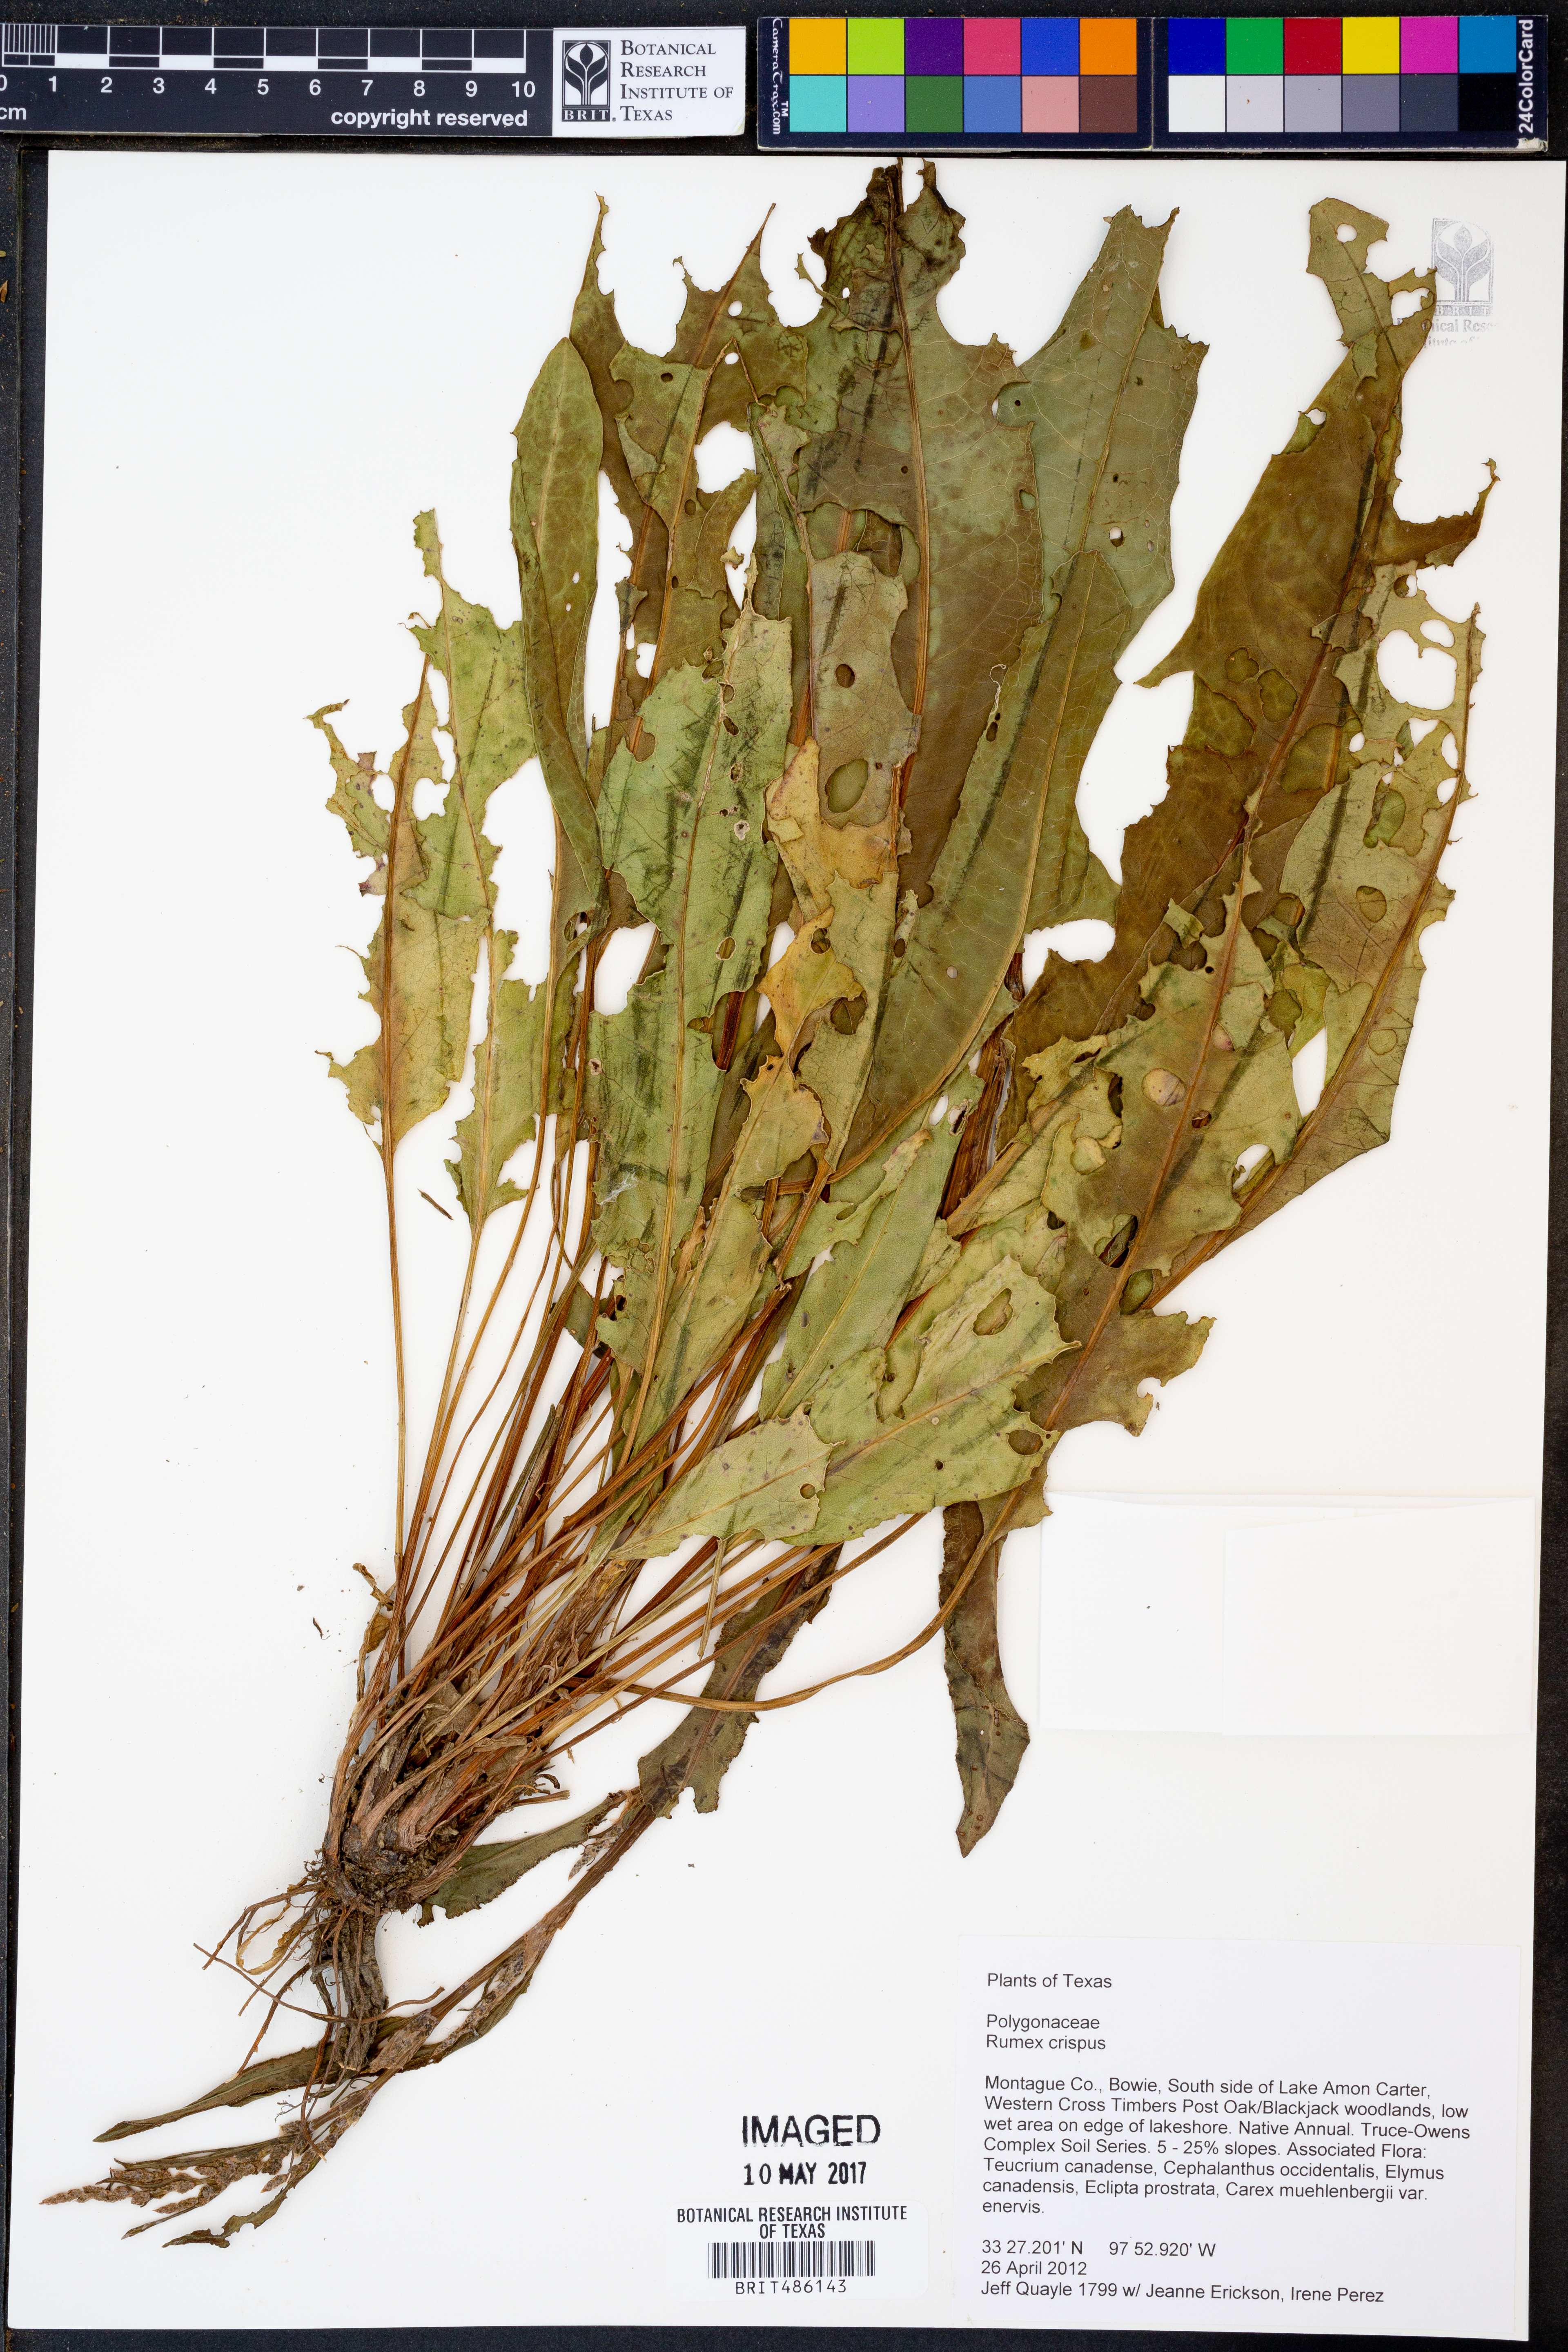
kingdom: Plantae
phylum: Tracheophyta
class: Magnoliopsida
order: Caryophyllales
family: Polygonaceae
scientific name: Polygonaceae
